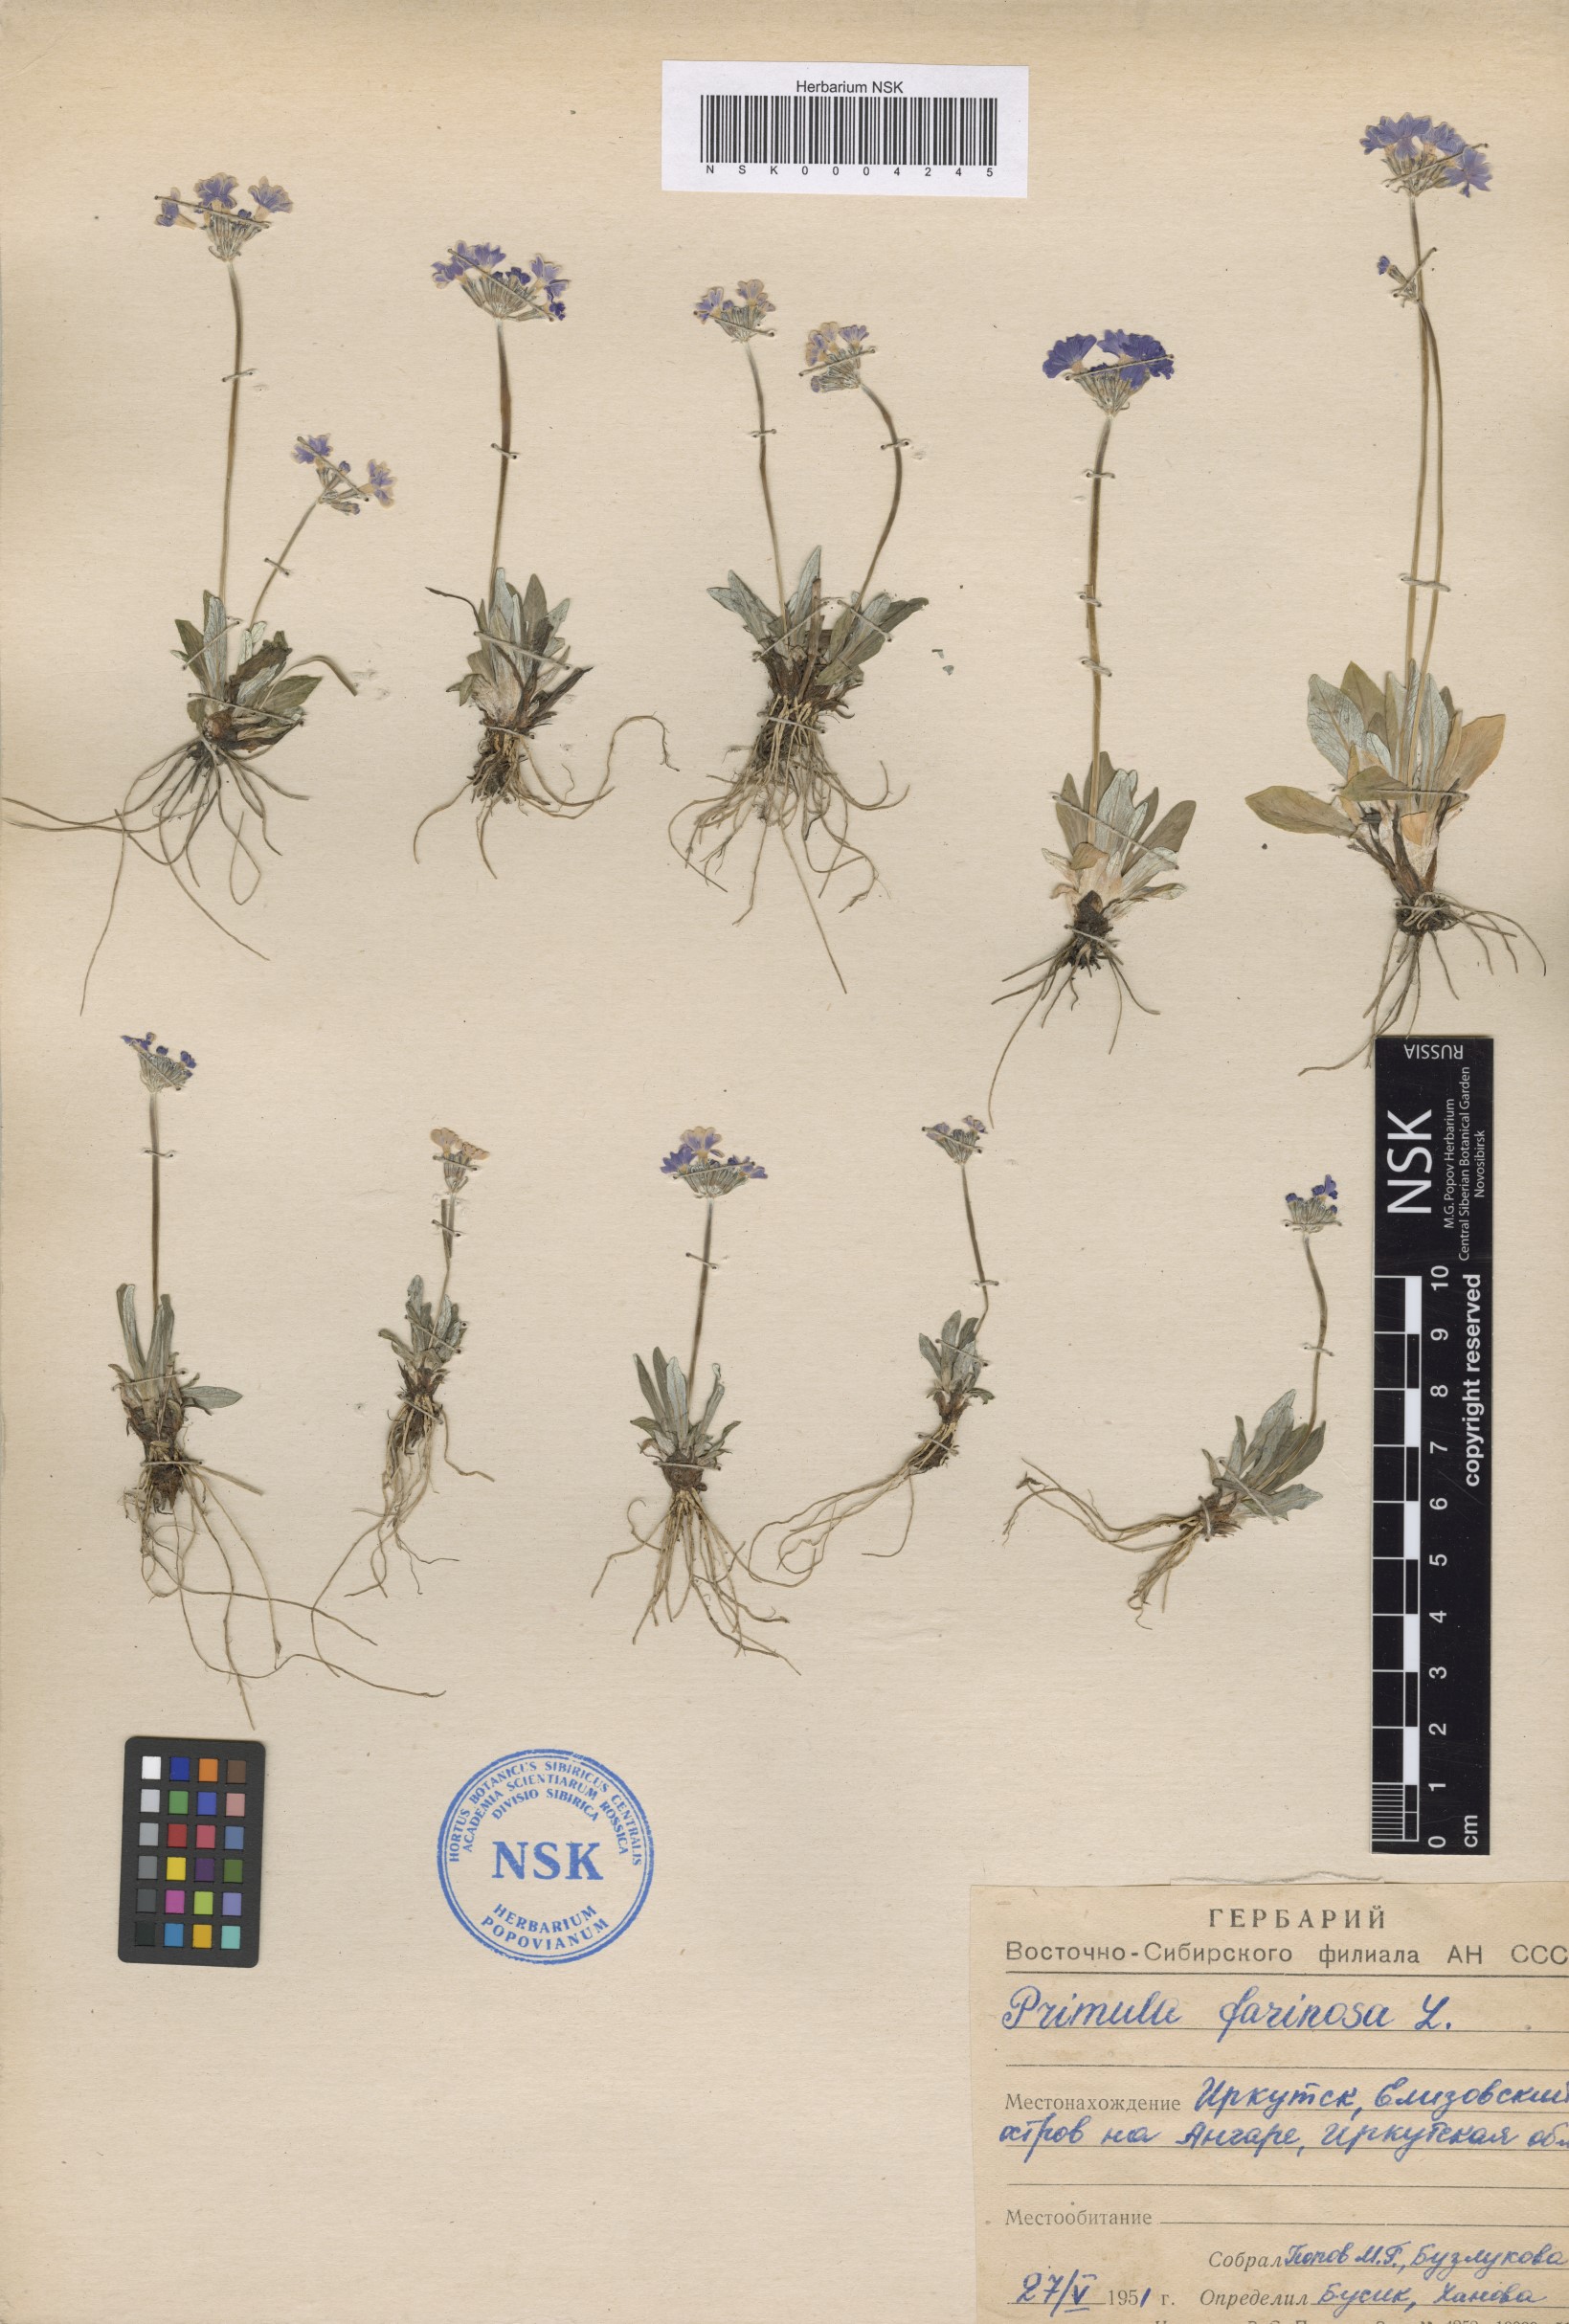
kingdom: Plantae
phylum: Tracheophyta
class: Magnoliopsida
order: Ericales
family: Primulaceae
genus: Primula
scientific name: Primula farinosa
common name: Bird's-eye primrose
